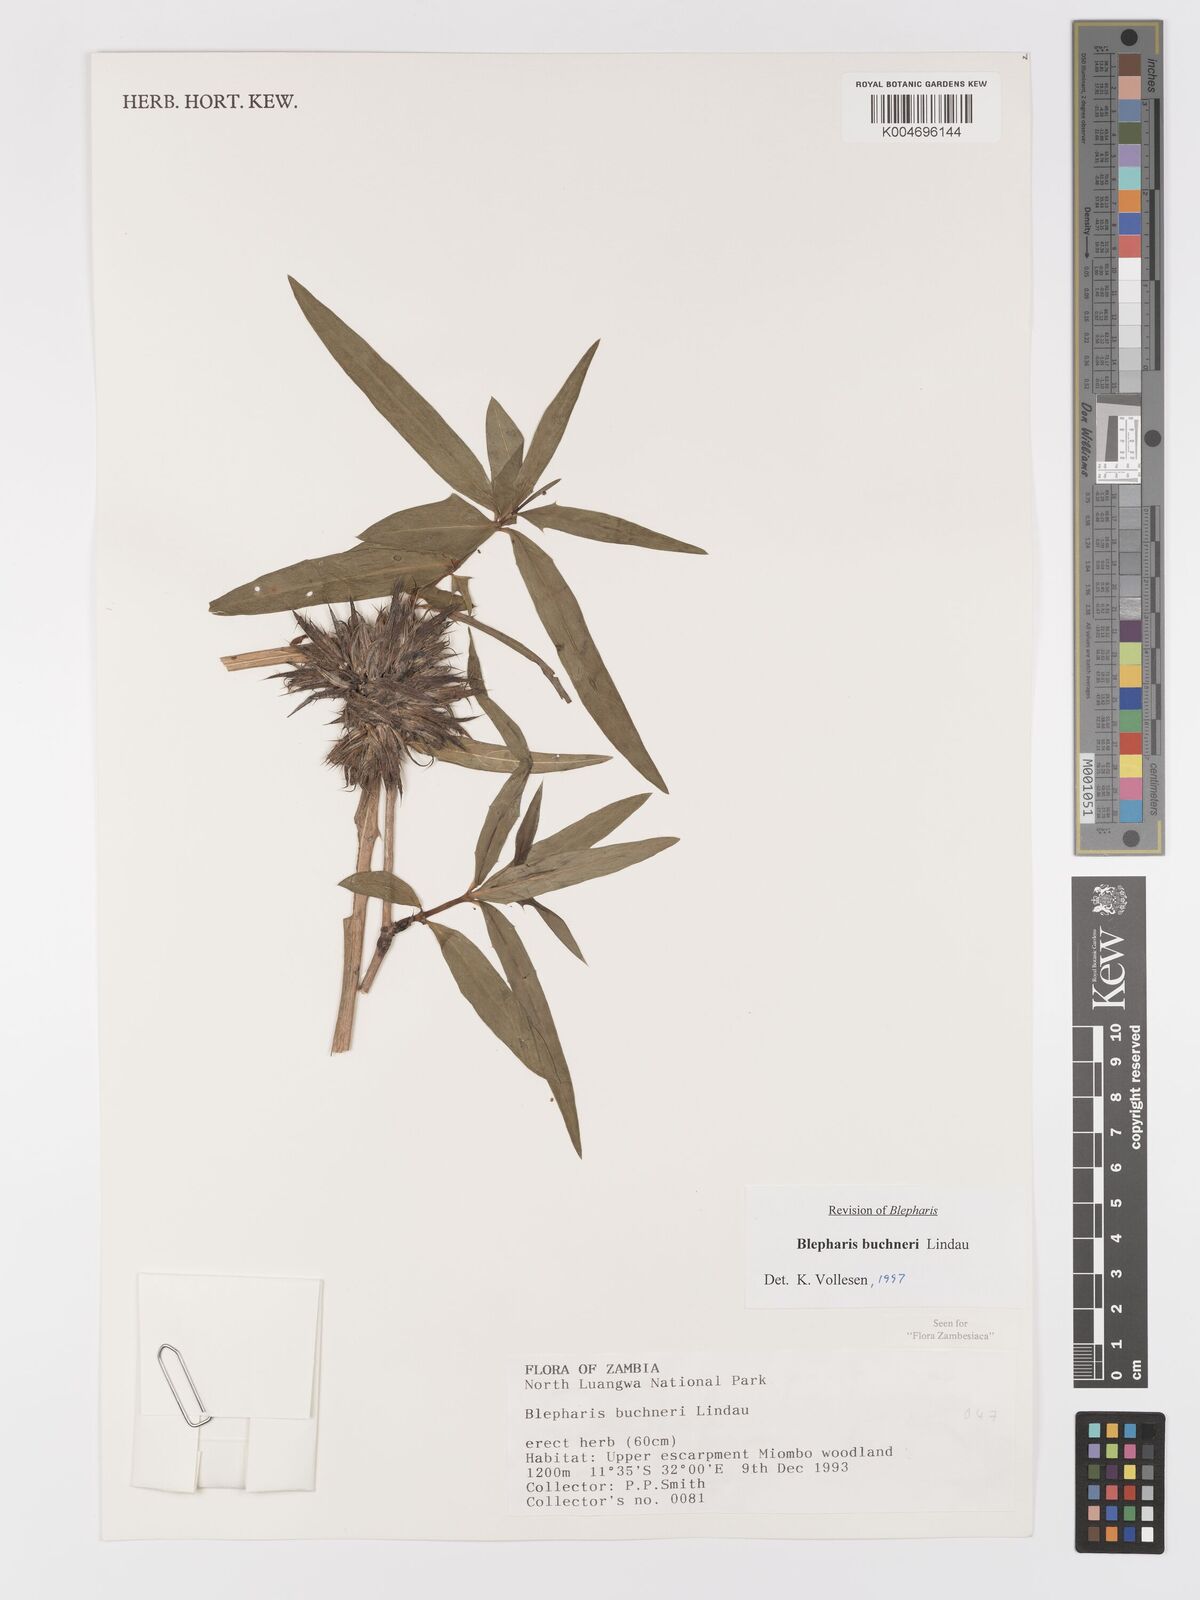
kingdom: Plantae
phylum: Tracheophyta
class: Magnoliopsida
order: Lamiales
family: Acanthaceae
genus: Blepharis
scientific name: Blepharis buchneri
